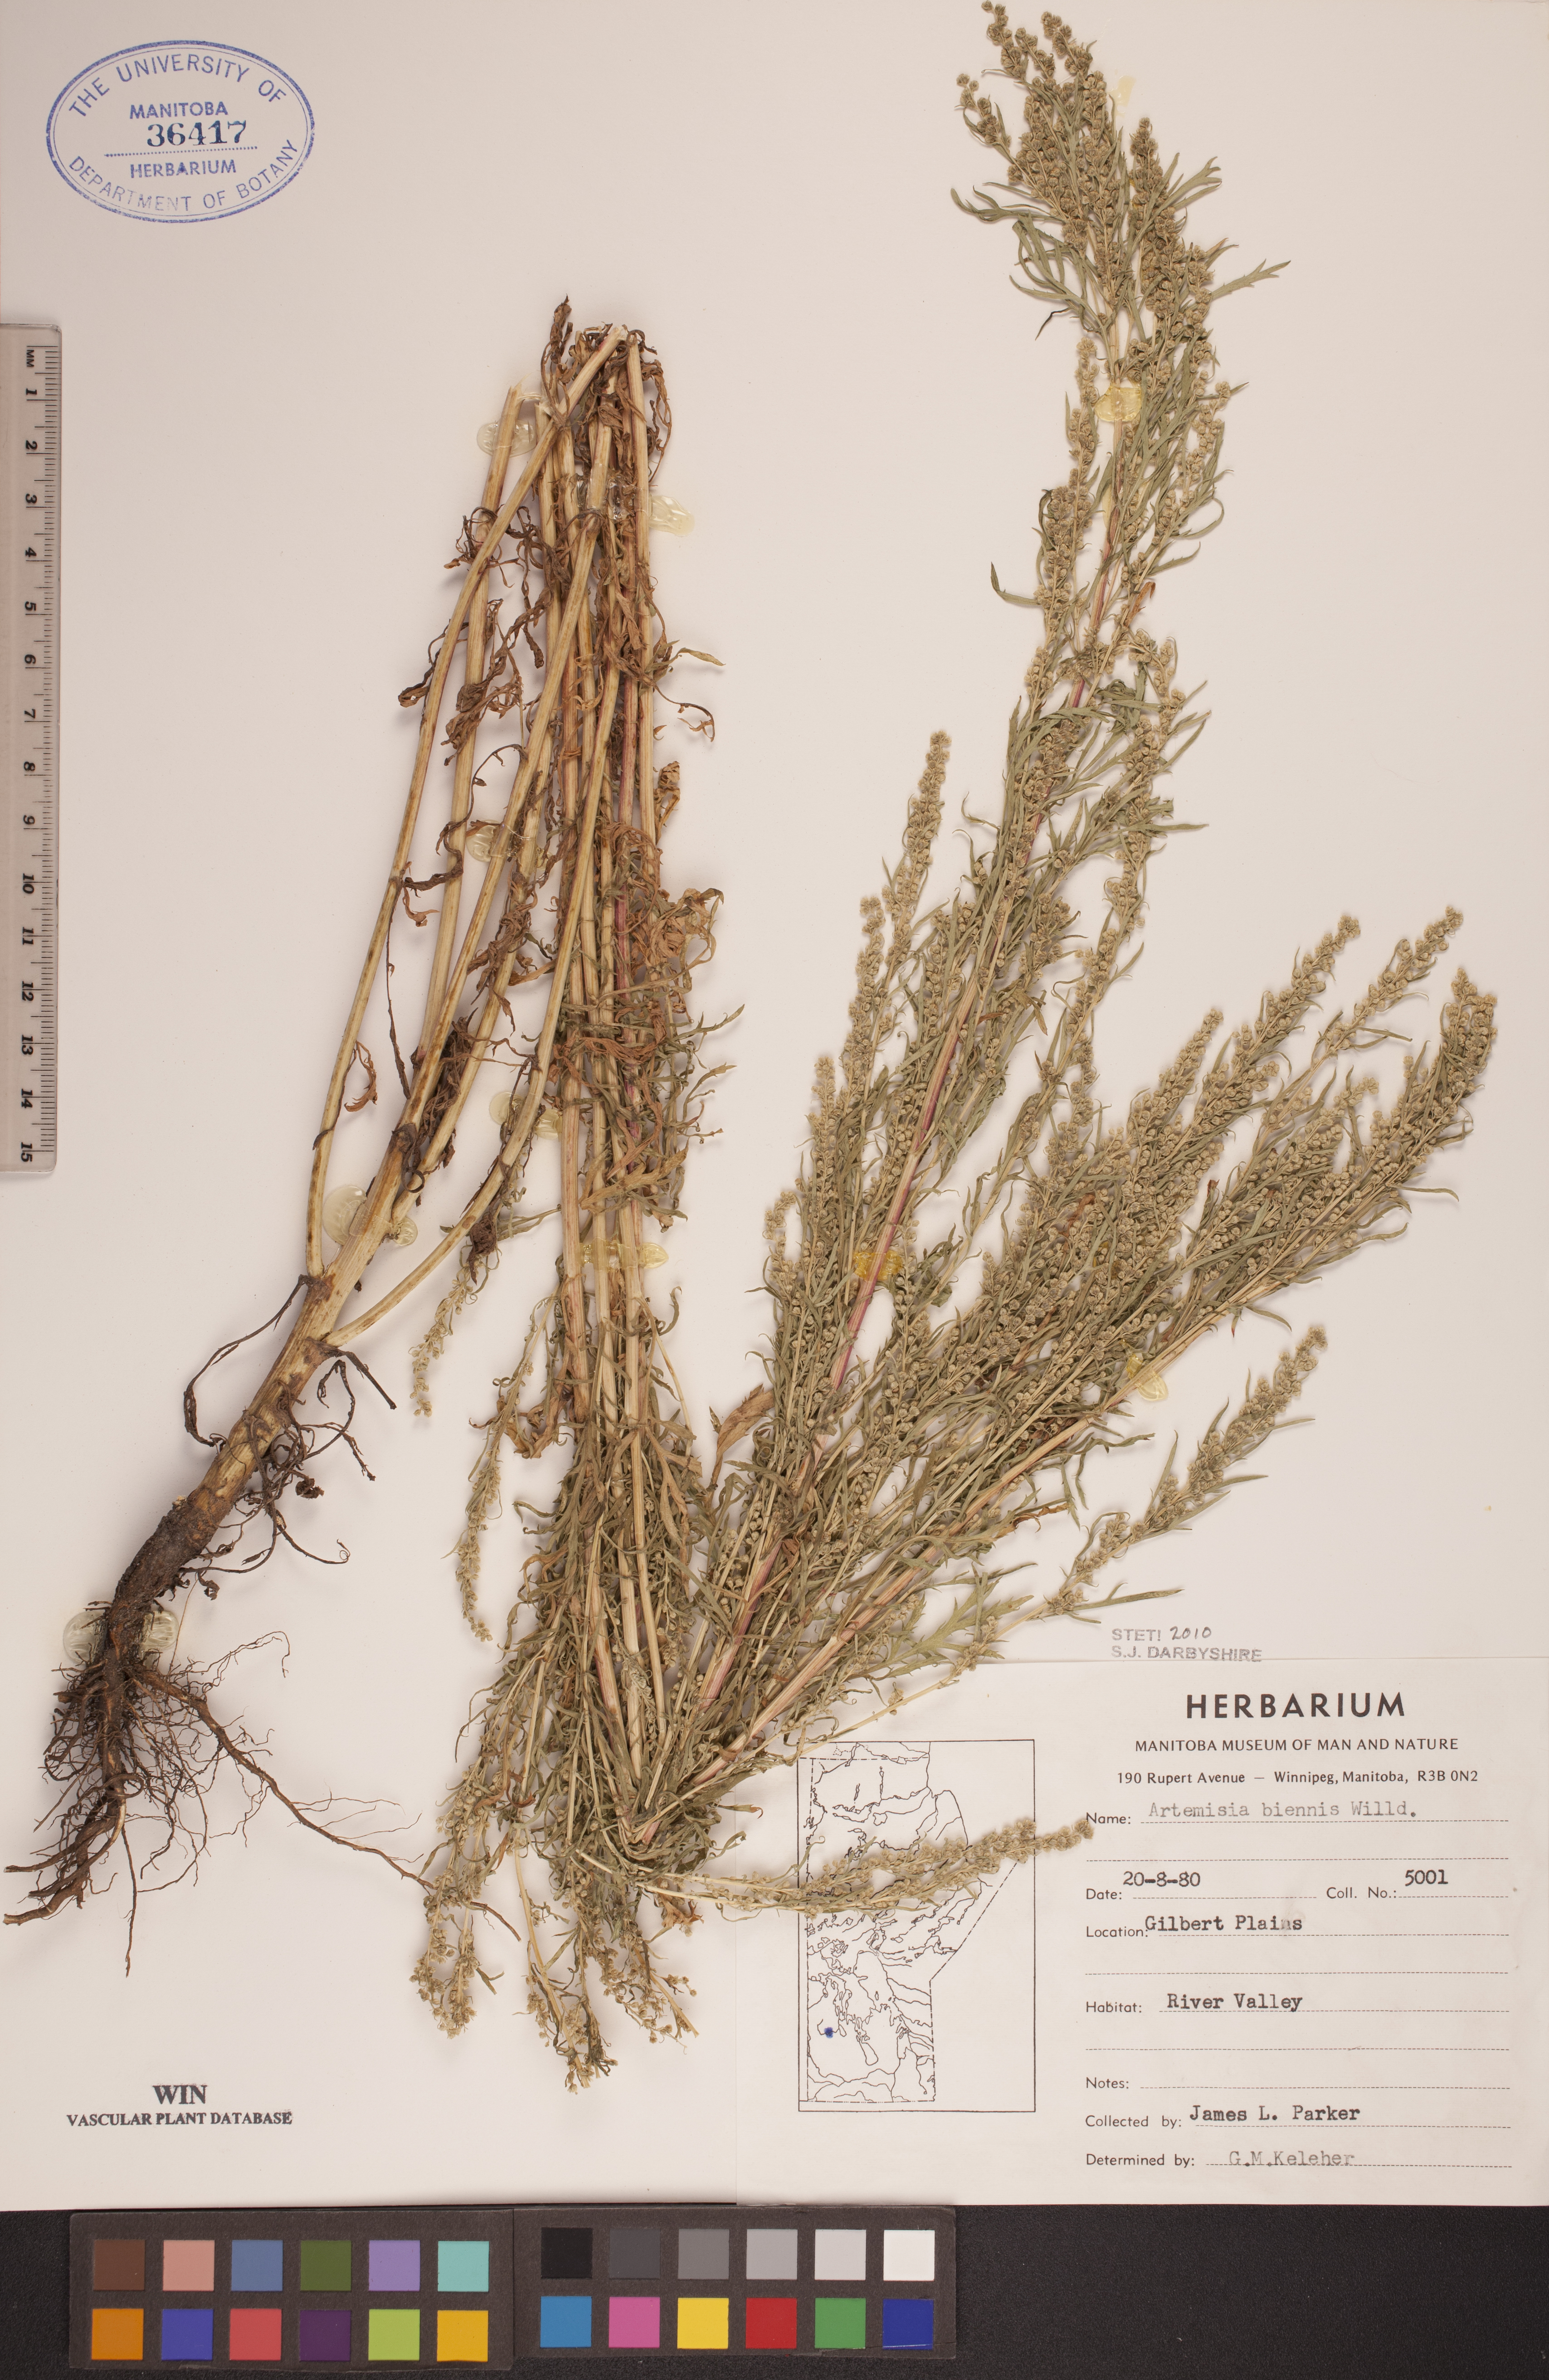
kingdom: Plantae
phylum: Tracheophyta
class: Magnoliopsida
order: Asterales
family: Asteraceae
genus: Artemisia
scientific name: Artemisia biennis
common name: Biennial wormwood
